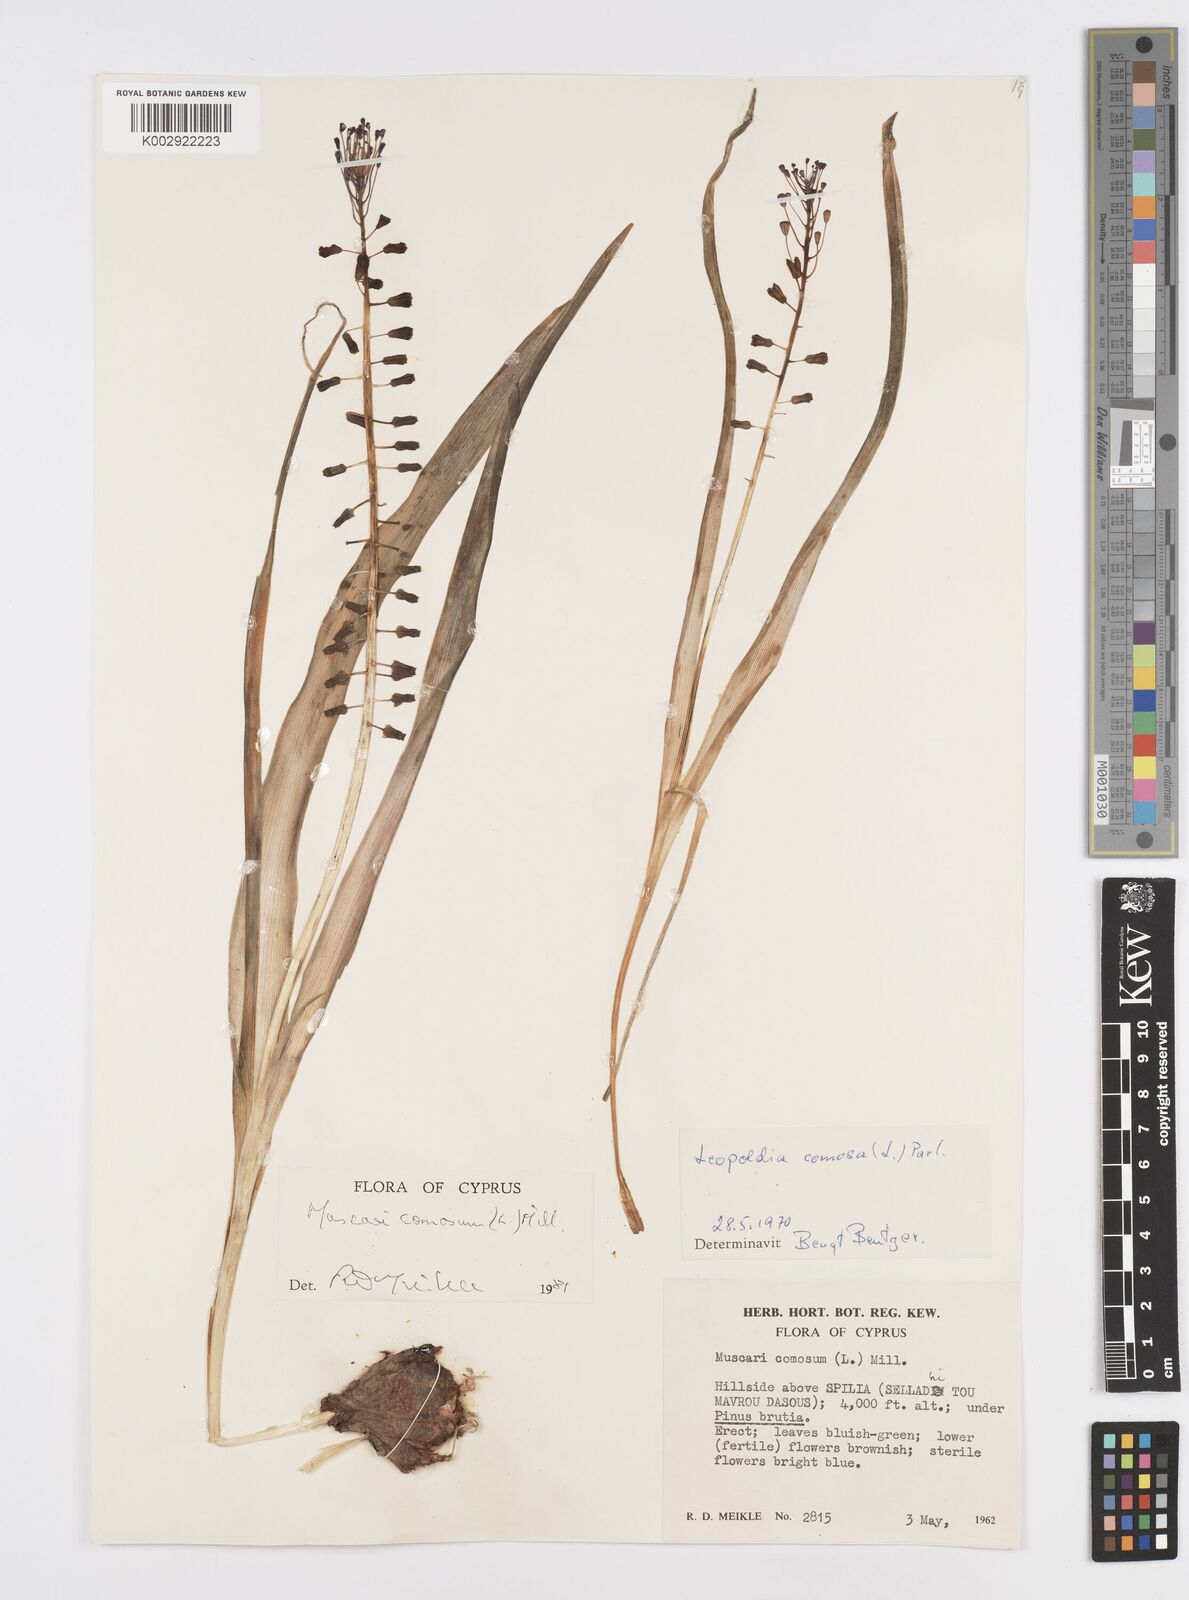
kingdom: Plantae
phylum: Tracheophyta
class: Liliopsida
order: Asparagales
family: Asparagaceae
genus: Muscari
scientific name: Muscari comosum
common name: Tassel hyacinth
